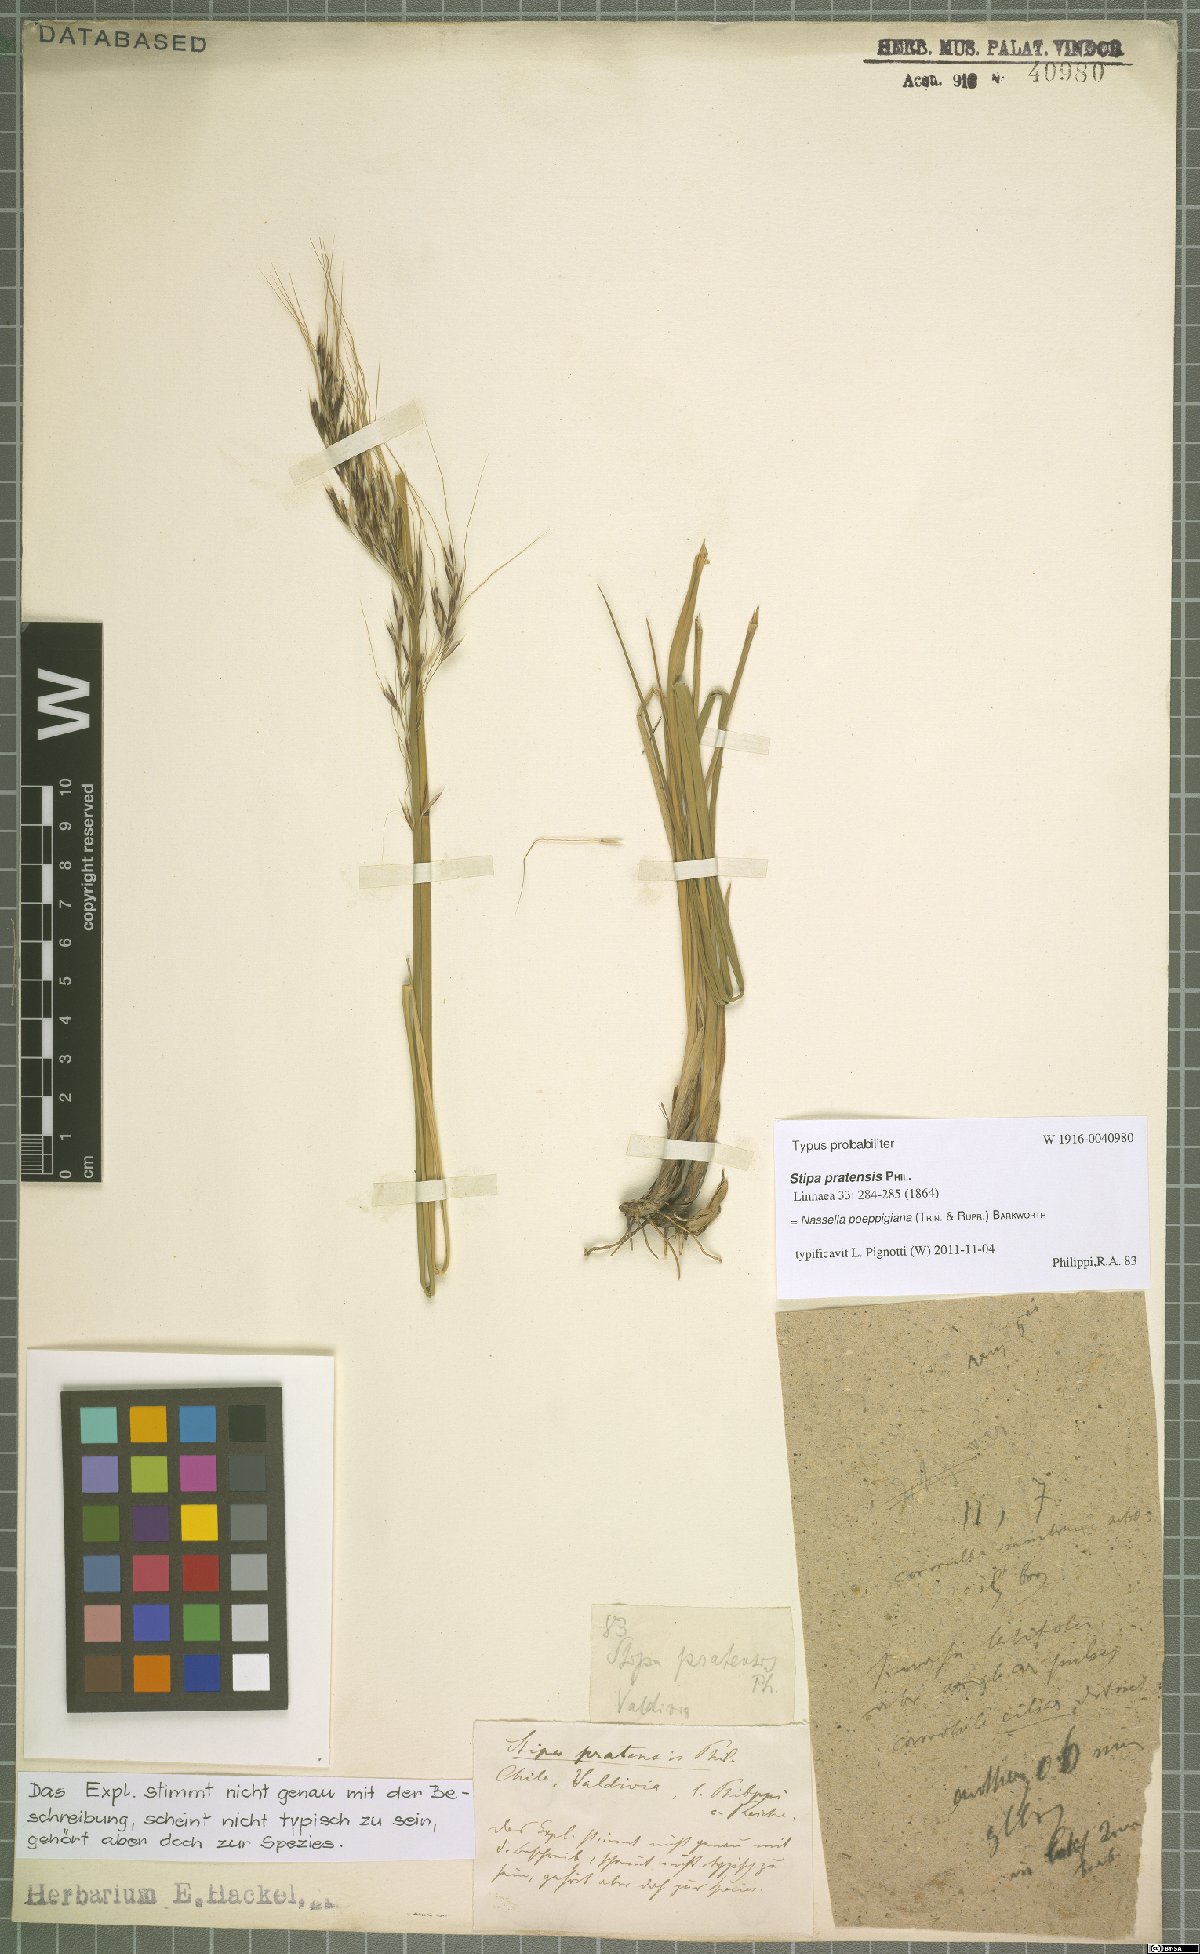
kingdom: Plantae
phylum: Tracheophyta
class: Liliopsida
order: Poales
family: Poaceae
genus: Nassella
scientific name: Nassella poeppigiana
